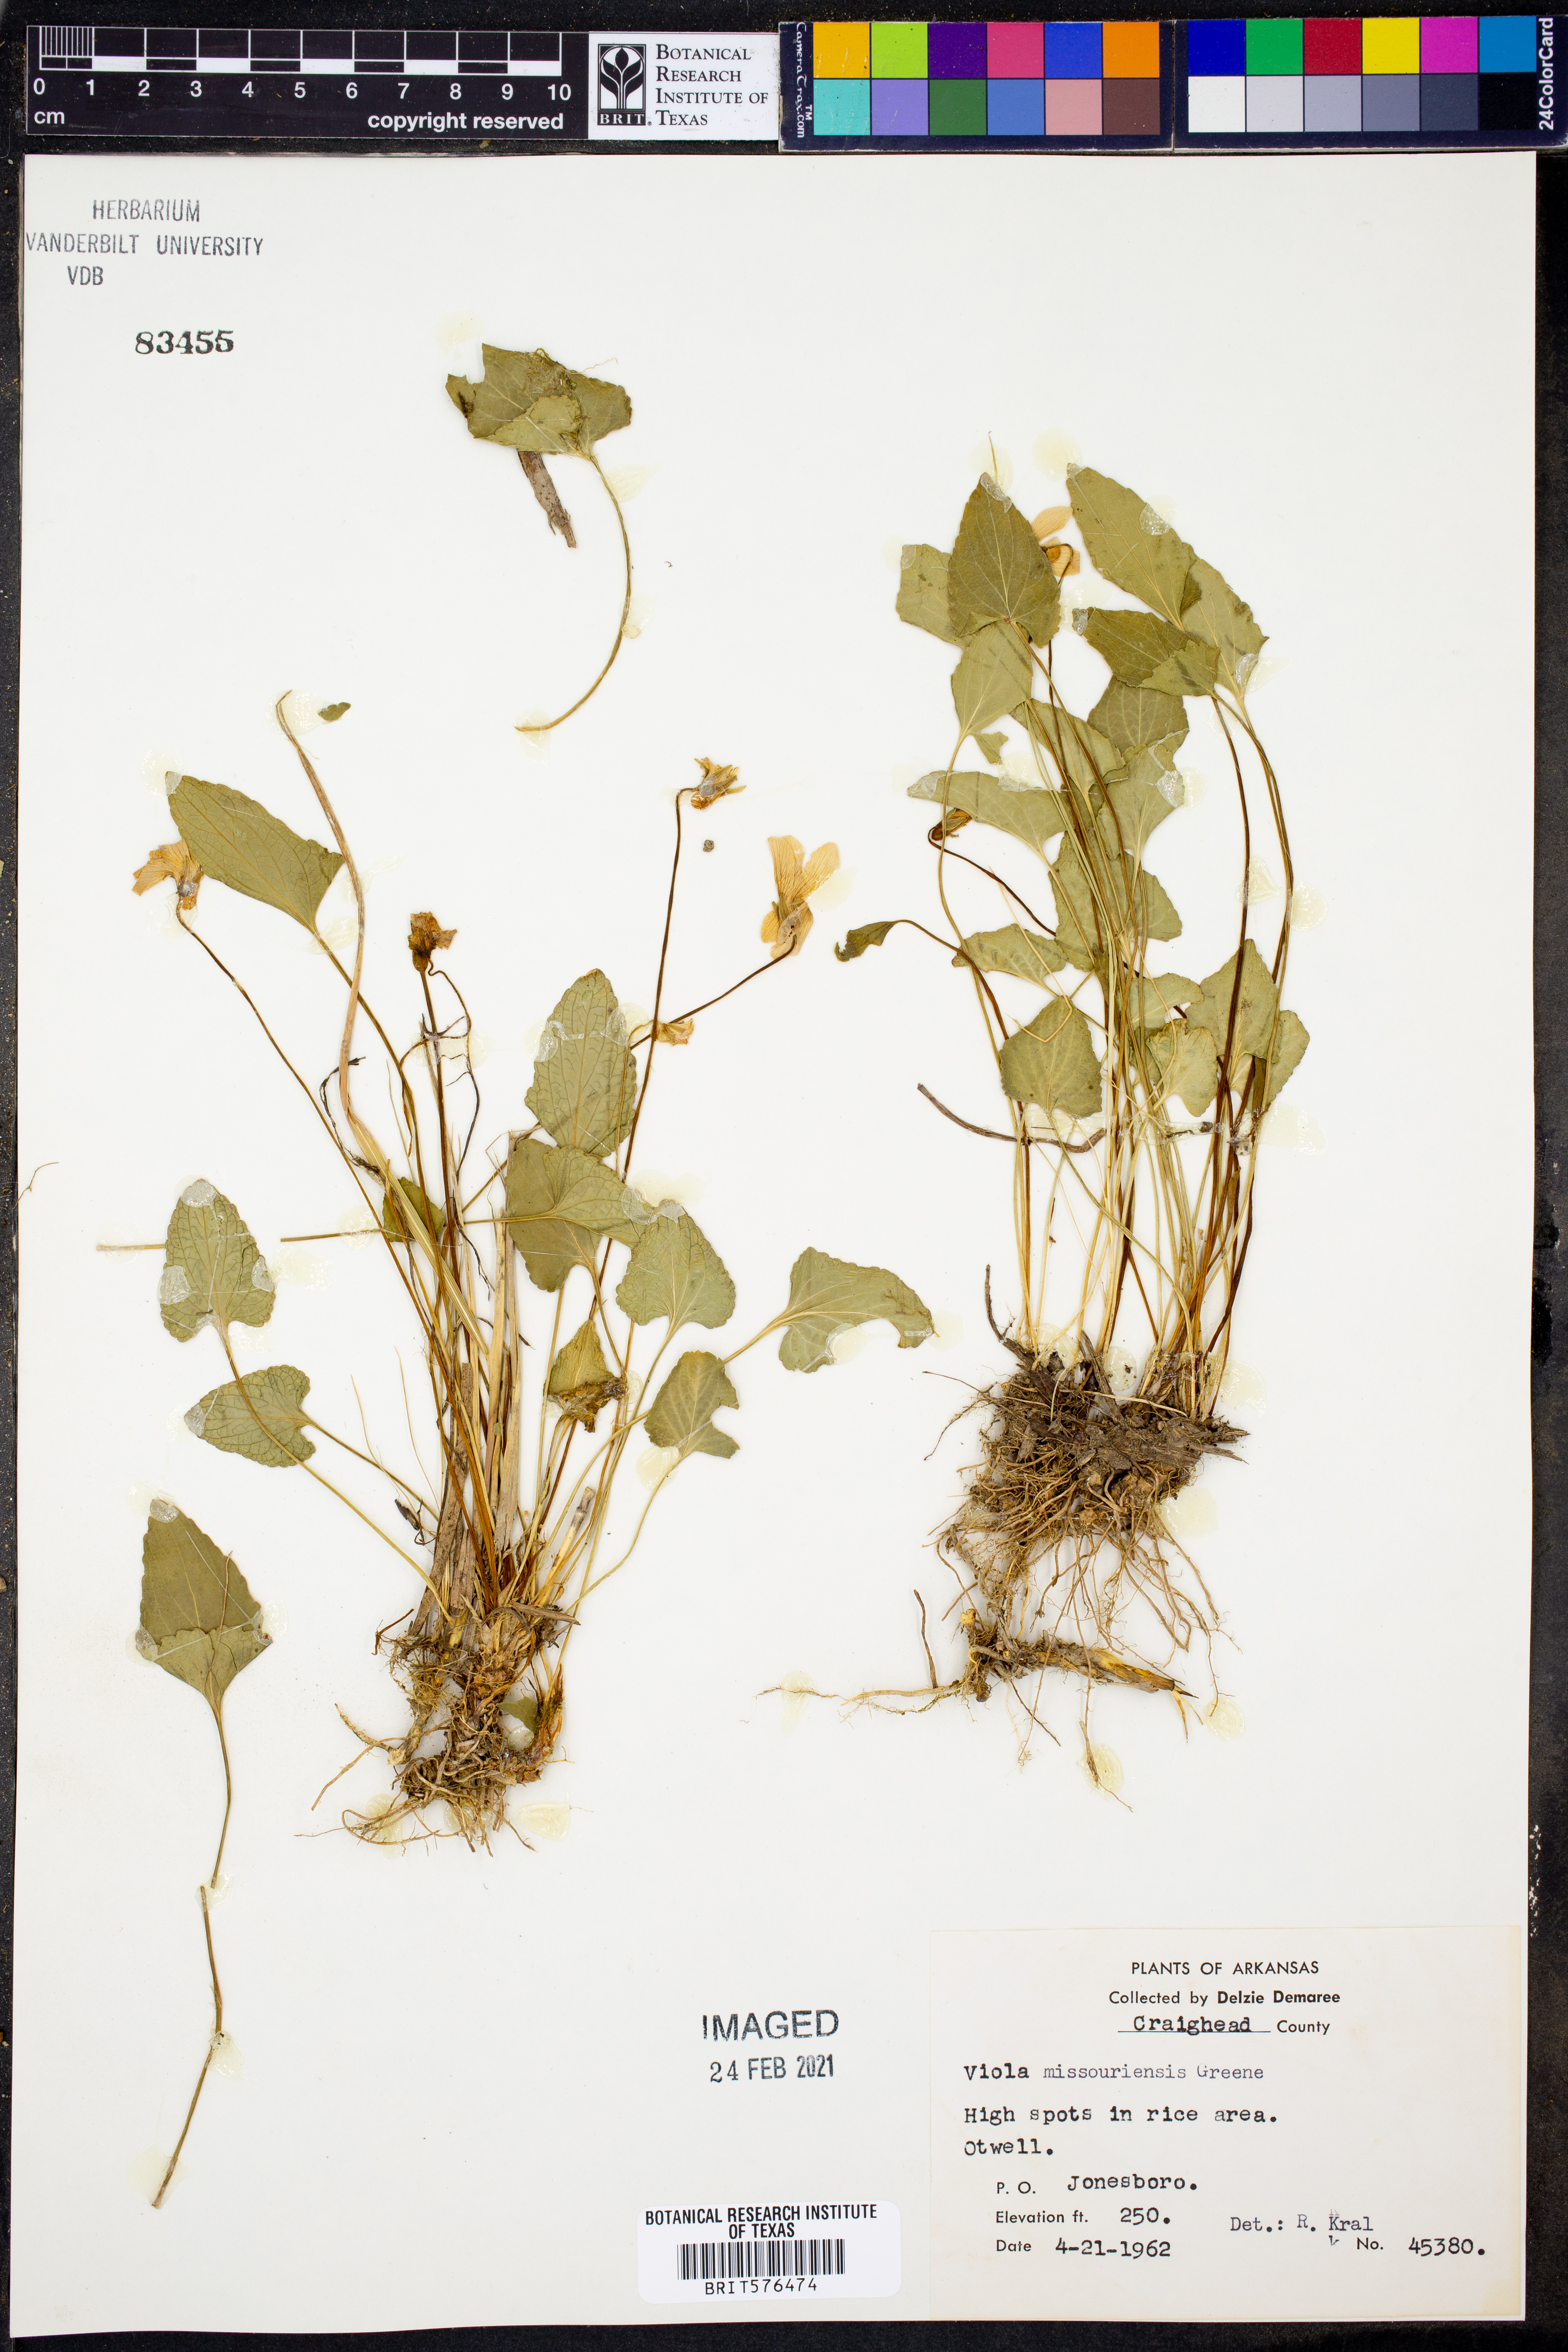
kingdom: Plantae
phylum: Tracheophyta
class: Magnoliopsida
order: Malpighiales
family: Violaceae
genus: Viola
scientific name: Viola missouriensis
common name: Missouri violet
